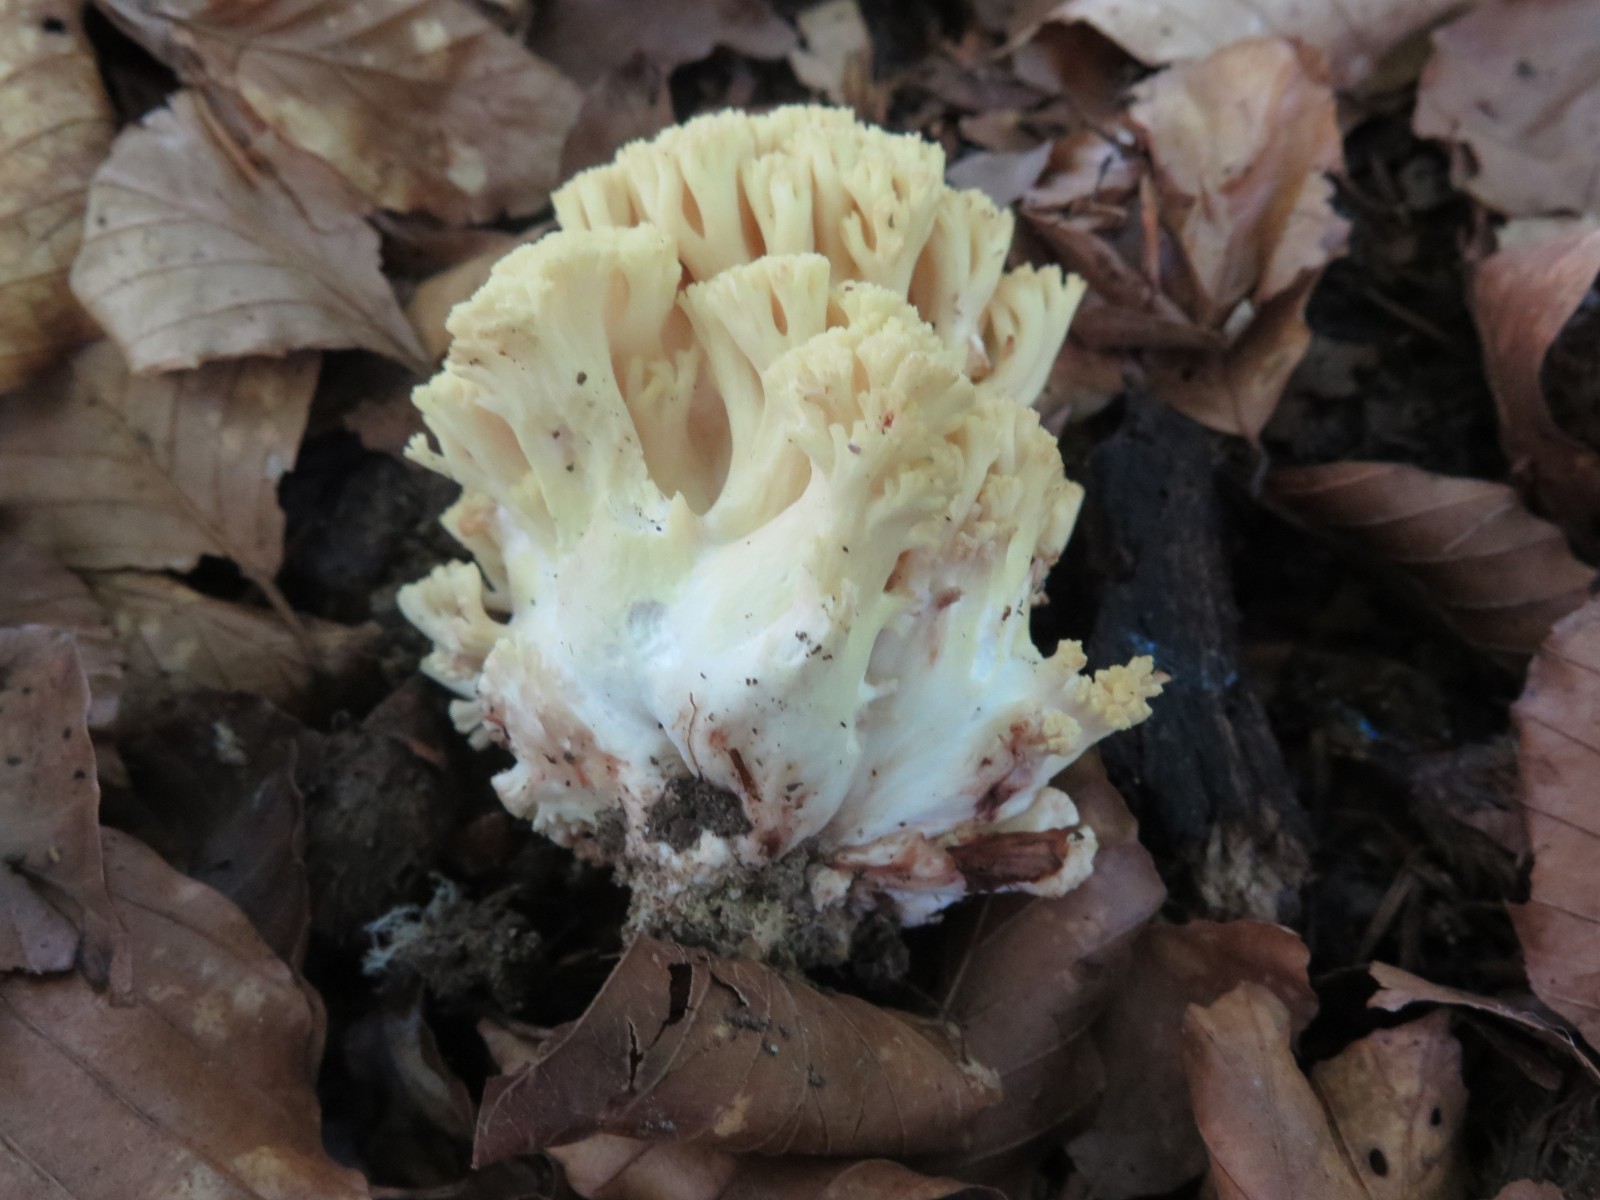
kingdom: Fungi
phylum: Basidiomycota
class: Agaricomycetes
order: Gomphales
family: Gomphaceae
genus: Ramaria
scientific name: Ramaria sanguinea
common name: blodplettet koralsvamp
